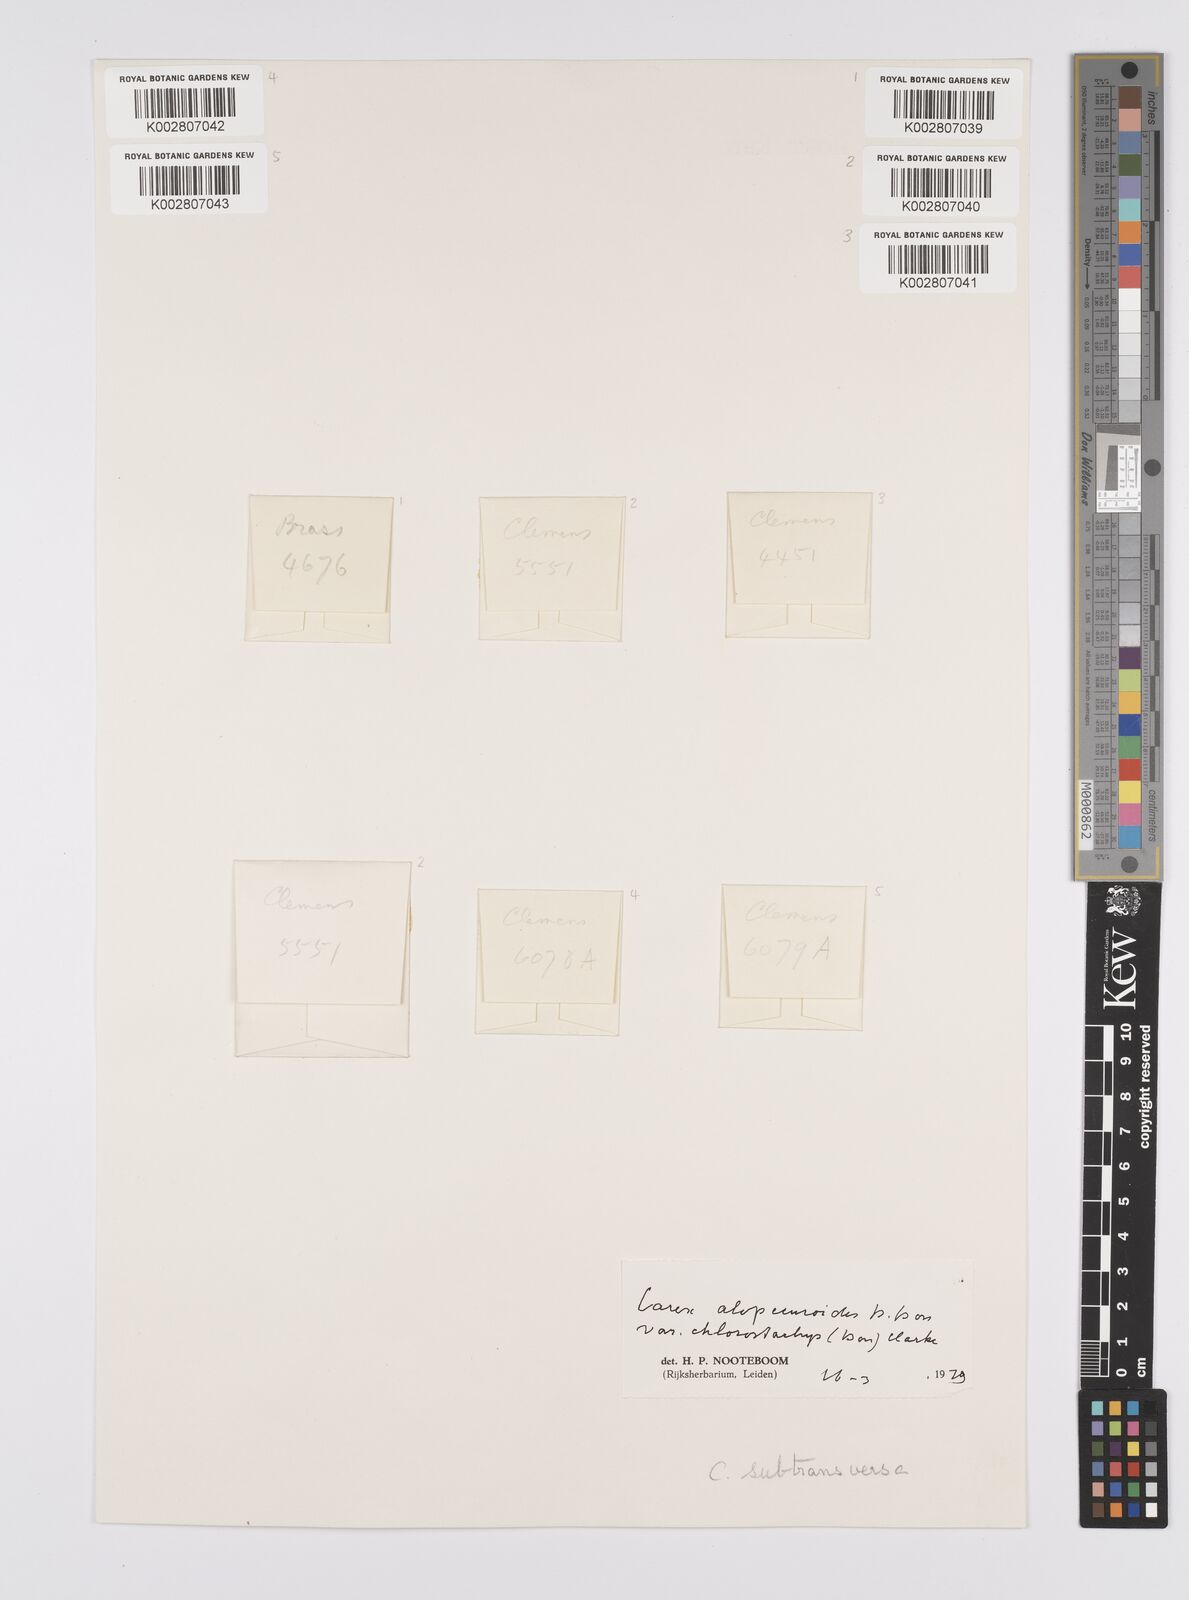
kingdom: Plantae
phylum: Tracheophyta
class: Liliopsida
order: Poales
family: Cyperaceae
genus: Carex
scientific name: Carex alopecuroides
